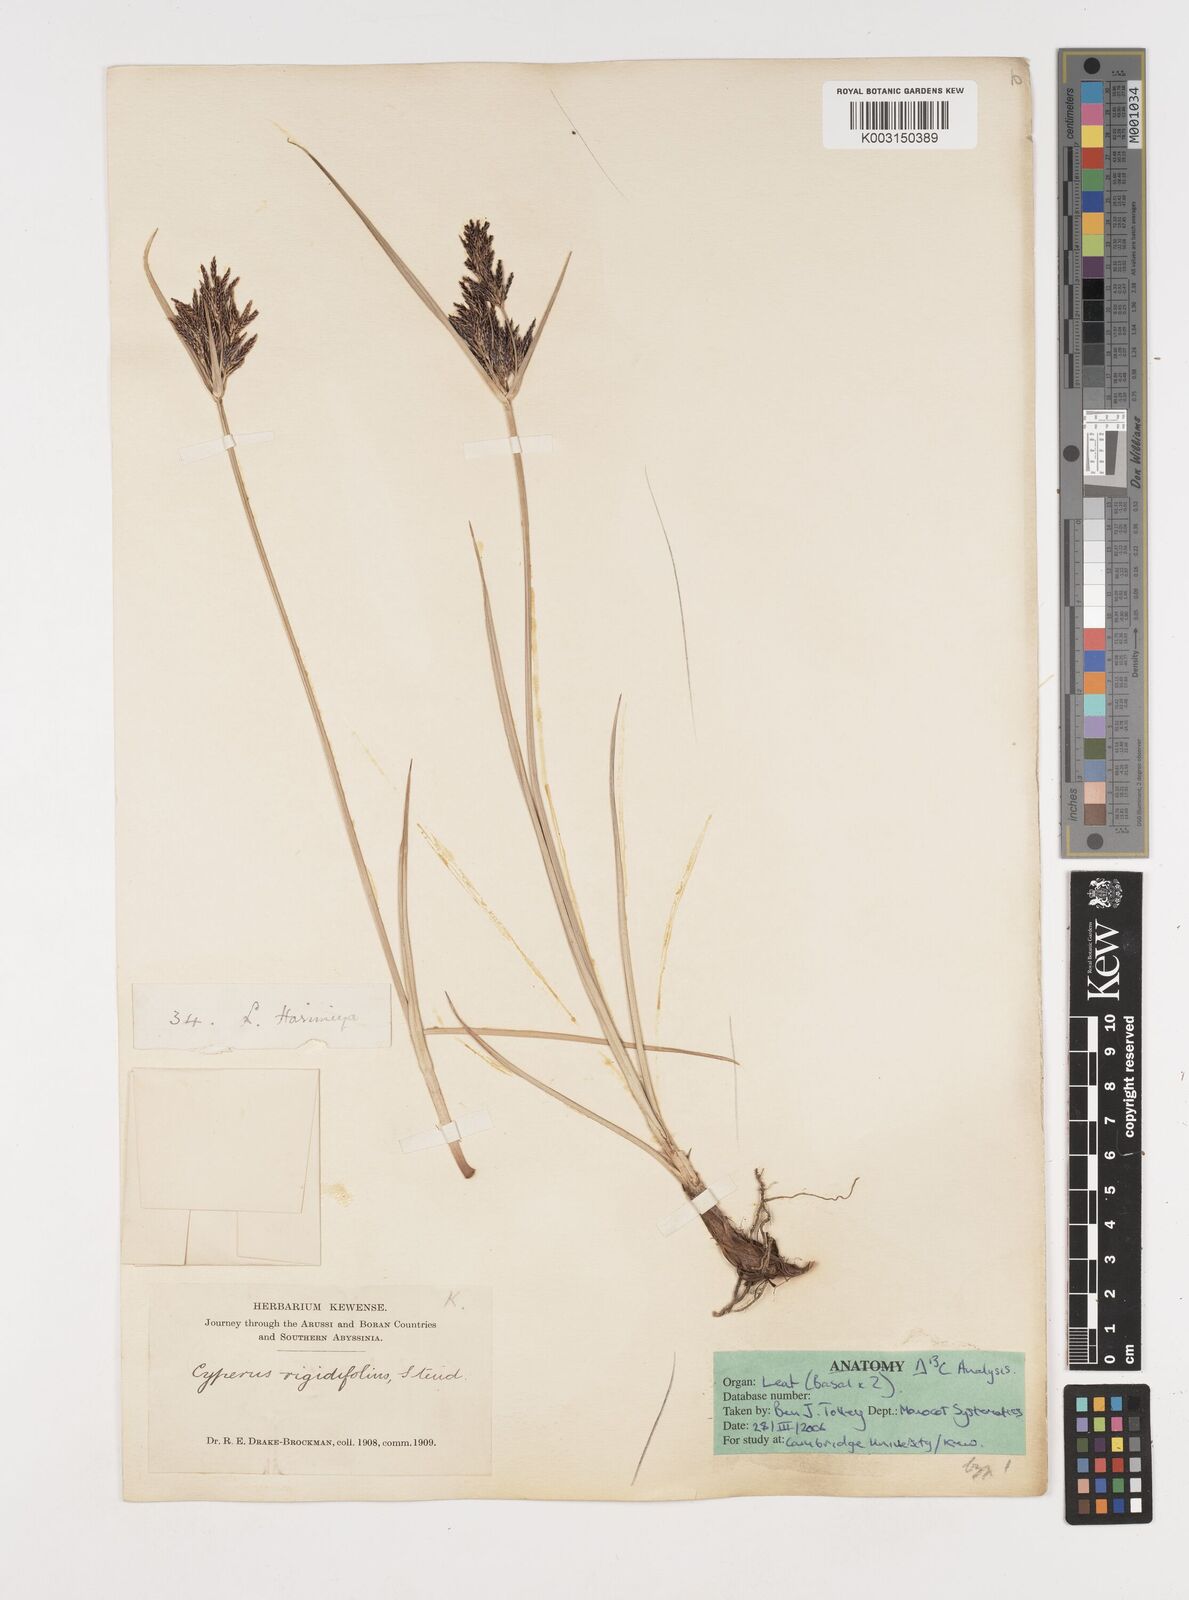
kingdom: Plantae
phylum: Tracheophyta
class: Liliopsida
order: Poales
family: Cyperaceae
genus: Cyperus
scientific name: Cyperus rigidifolius
